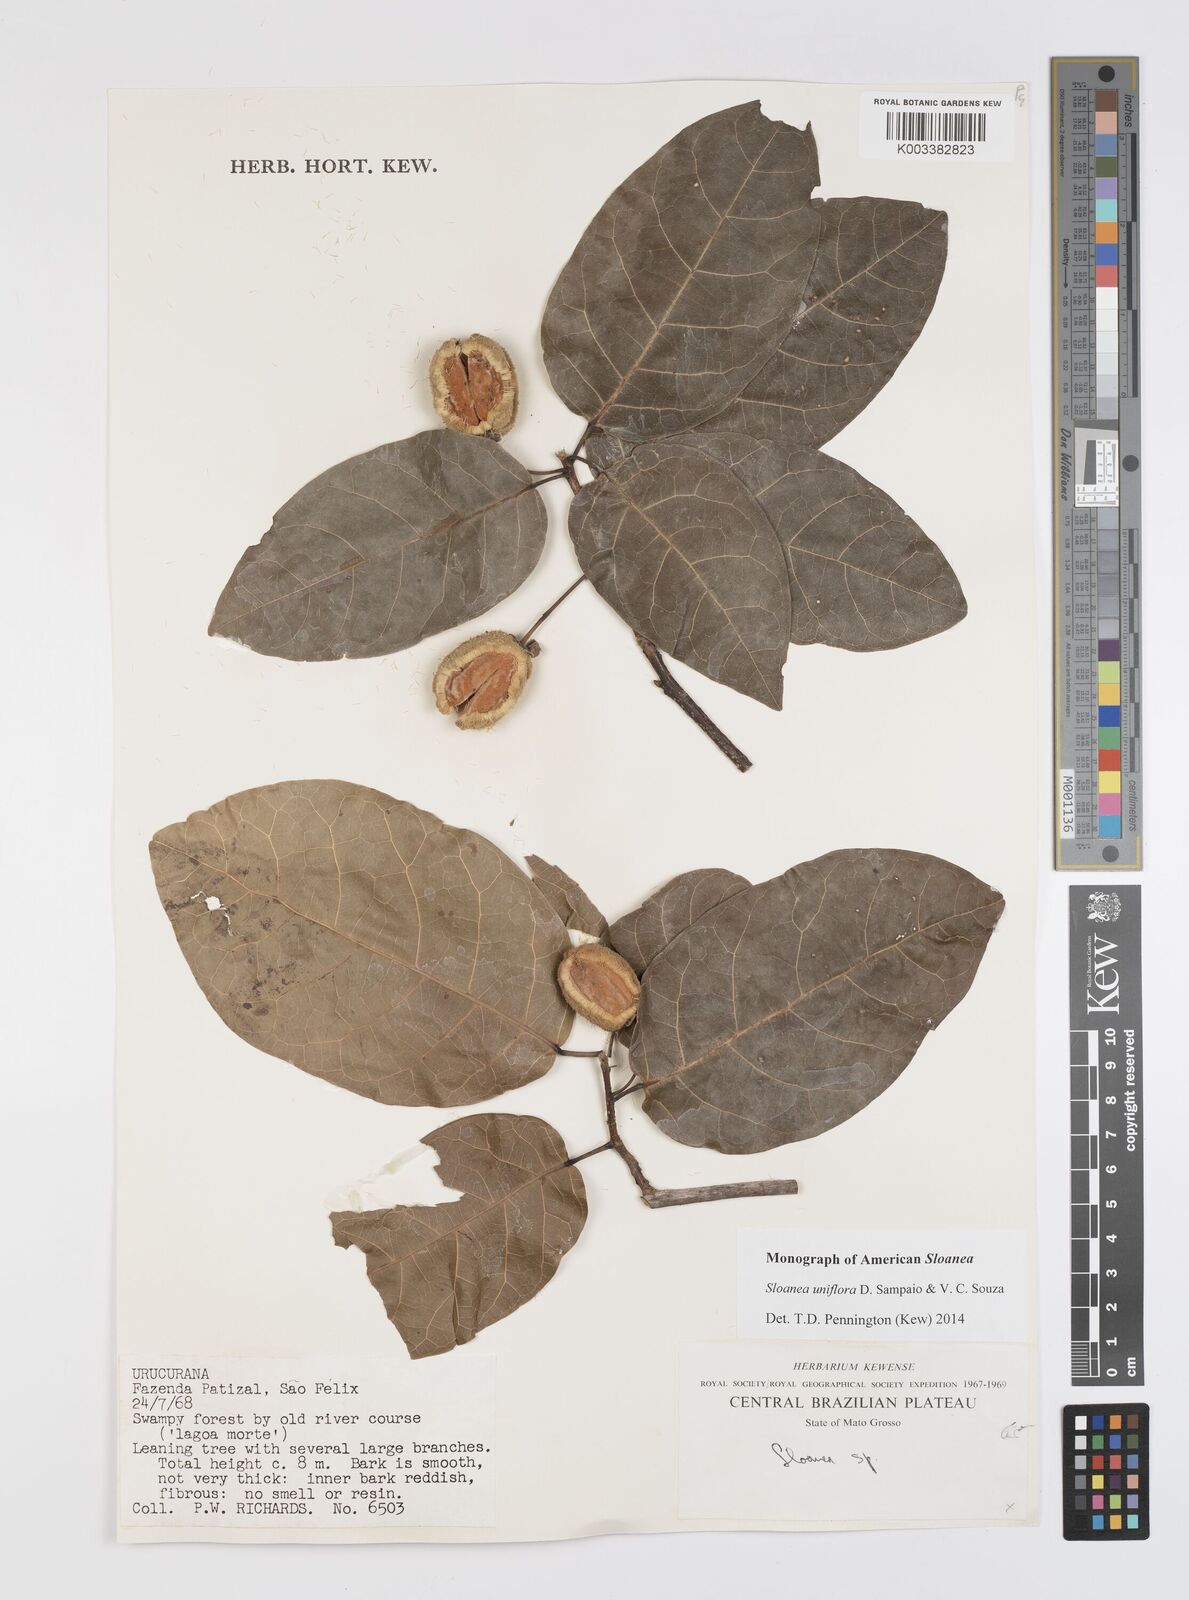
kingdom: Plantae
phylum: Tracheophyta
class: Magnoliopsida
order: Oxalidales
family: Elaeocarpaceae
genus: Sloanea
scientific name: Sloanea uniflora
